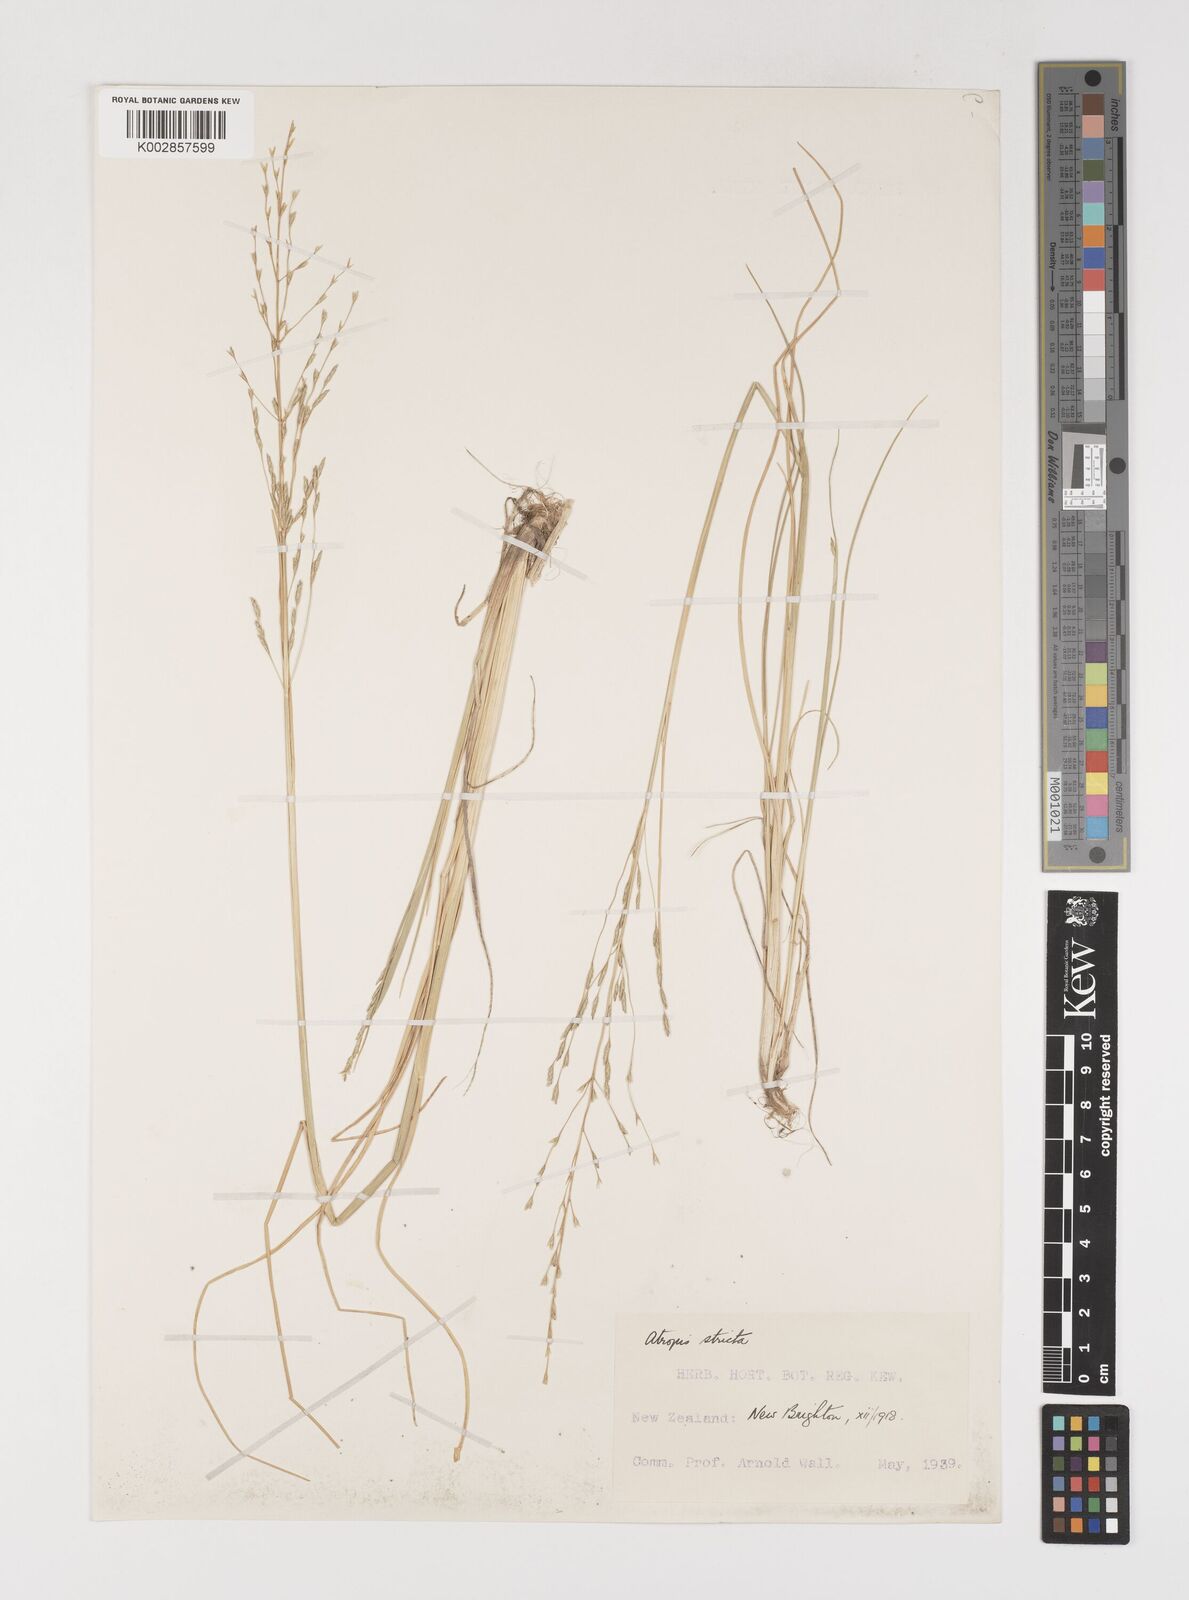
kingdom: Plantae
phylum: Tracheophyta
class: Liliopsida
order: Poales
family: Poaceae
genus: Puccinellia
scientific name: Puccinellia
